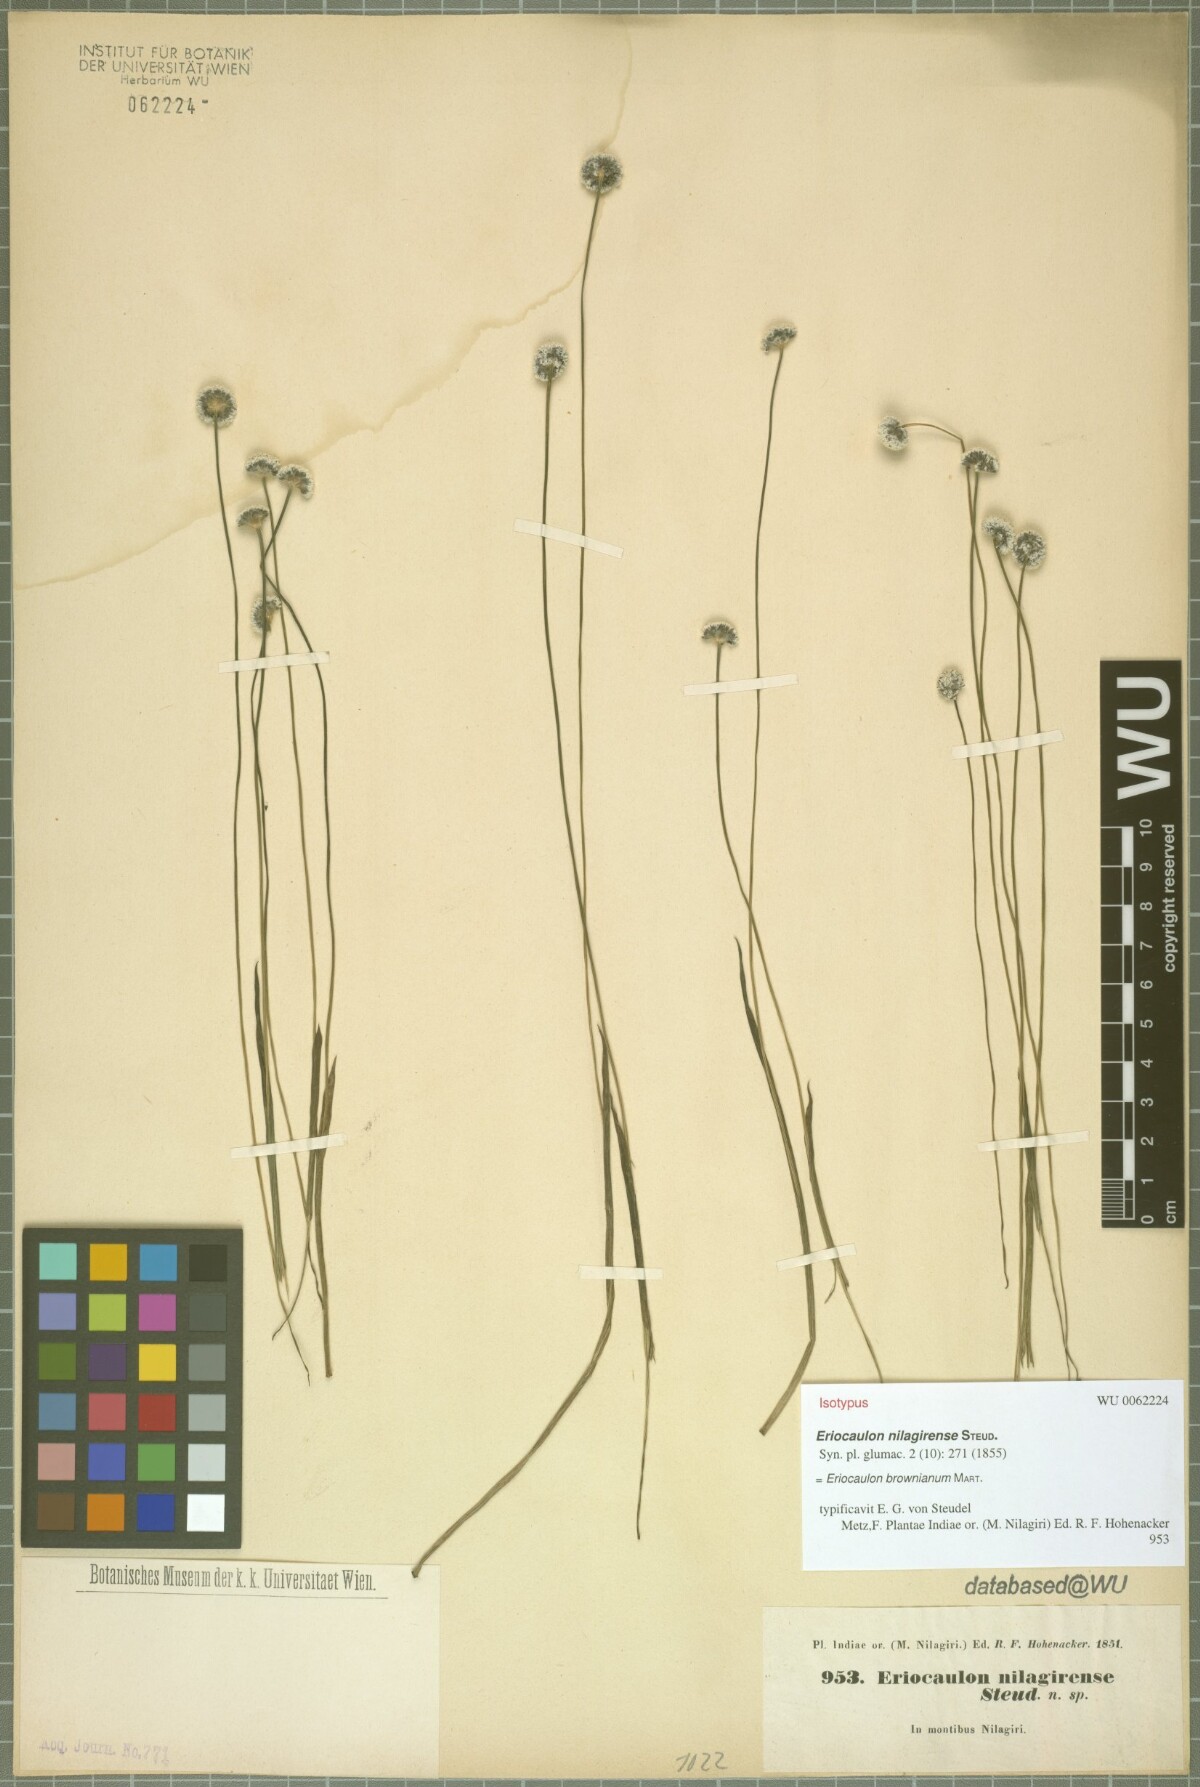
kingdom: Plantae
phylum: Tracheophyta
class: Liliopsida
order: Poales
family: Eriocaulaceae
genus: Eriocaulon
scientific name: Eriocaulon brownianum
